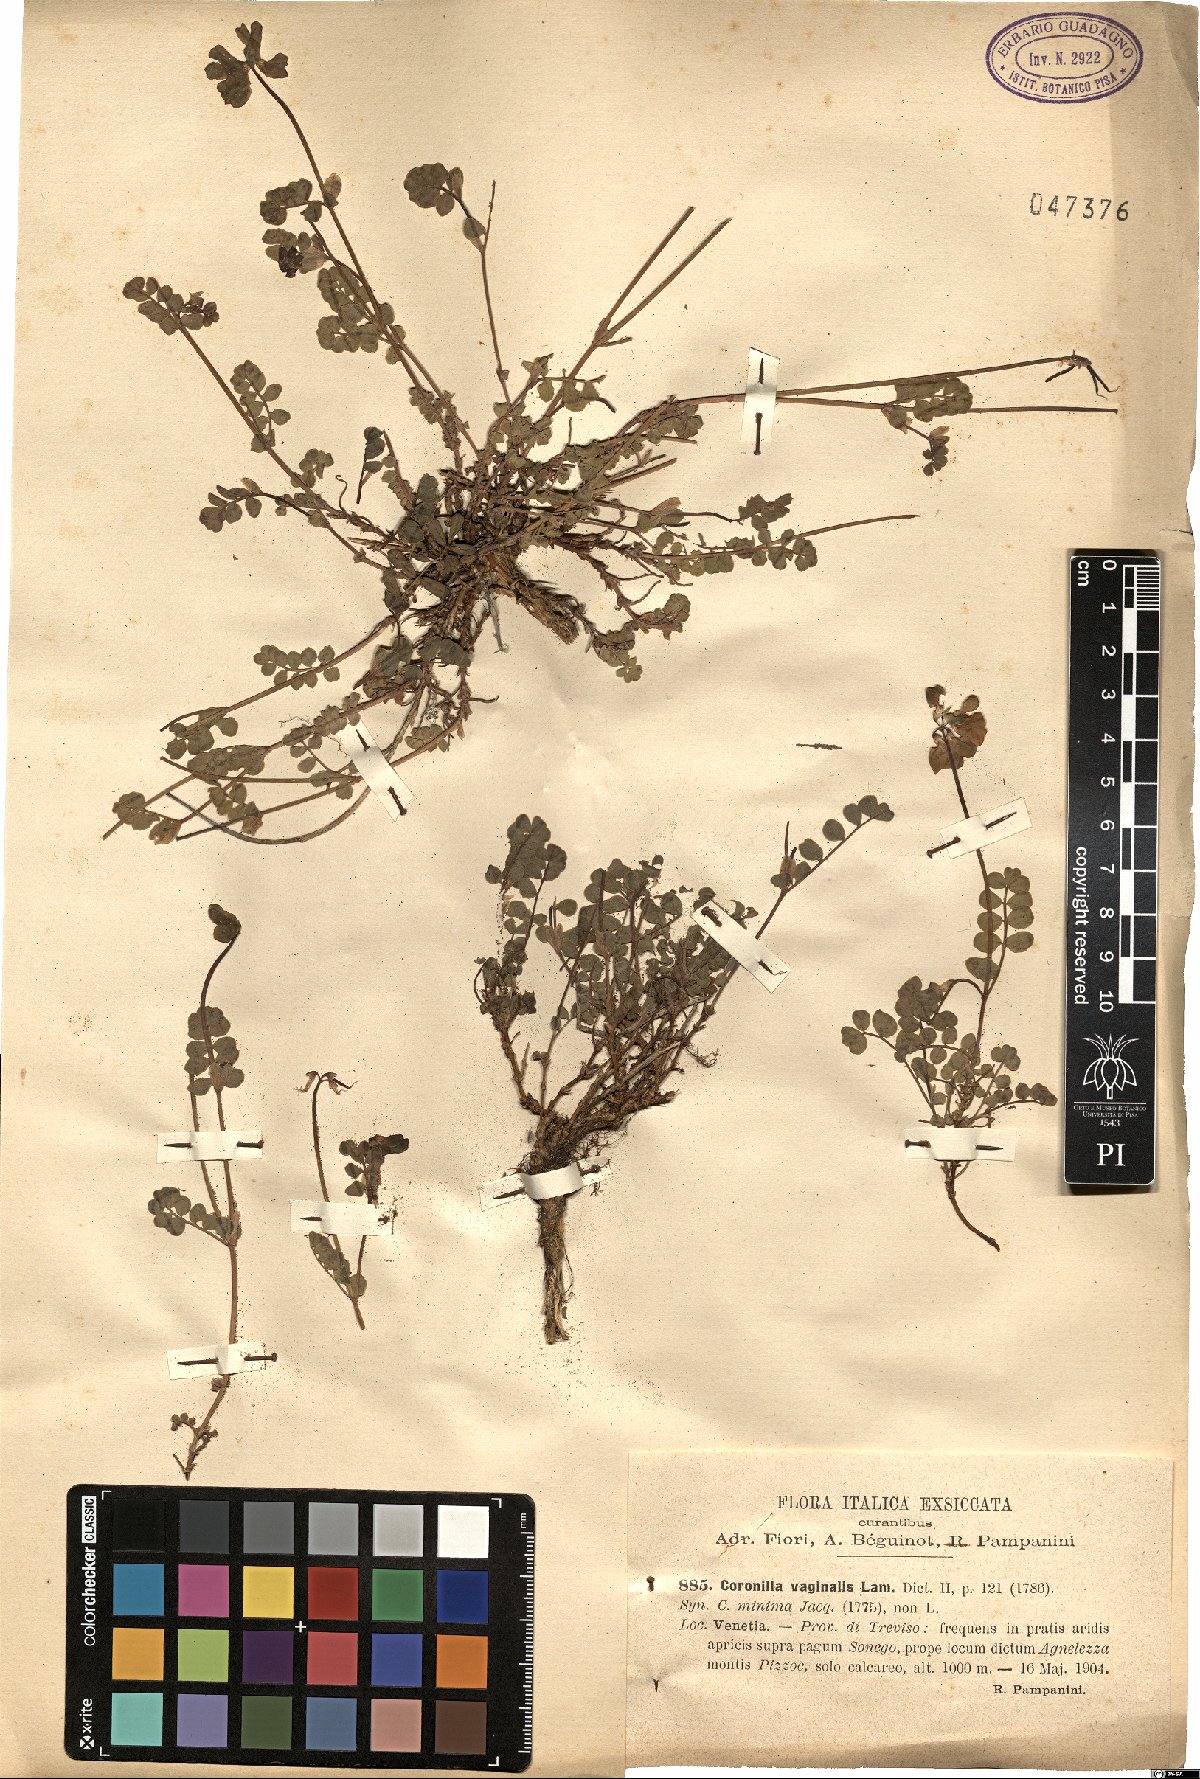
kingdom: Plantae
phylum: Tracheophyta
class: Magnoliopsida
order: Fabales
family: Fabaceae
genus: Coronilla
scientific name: Coronilla vaginalis
